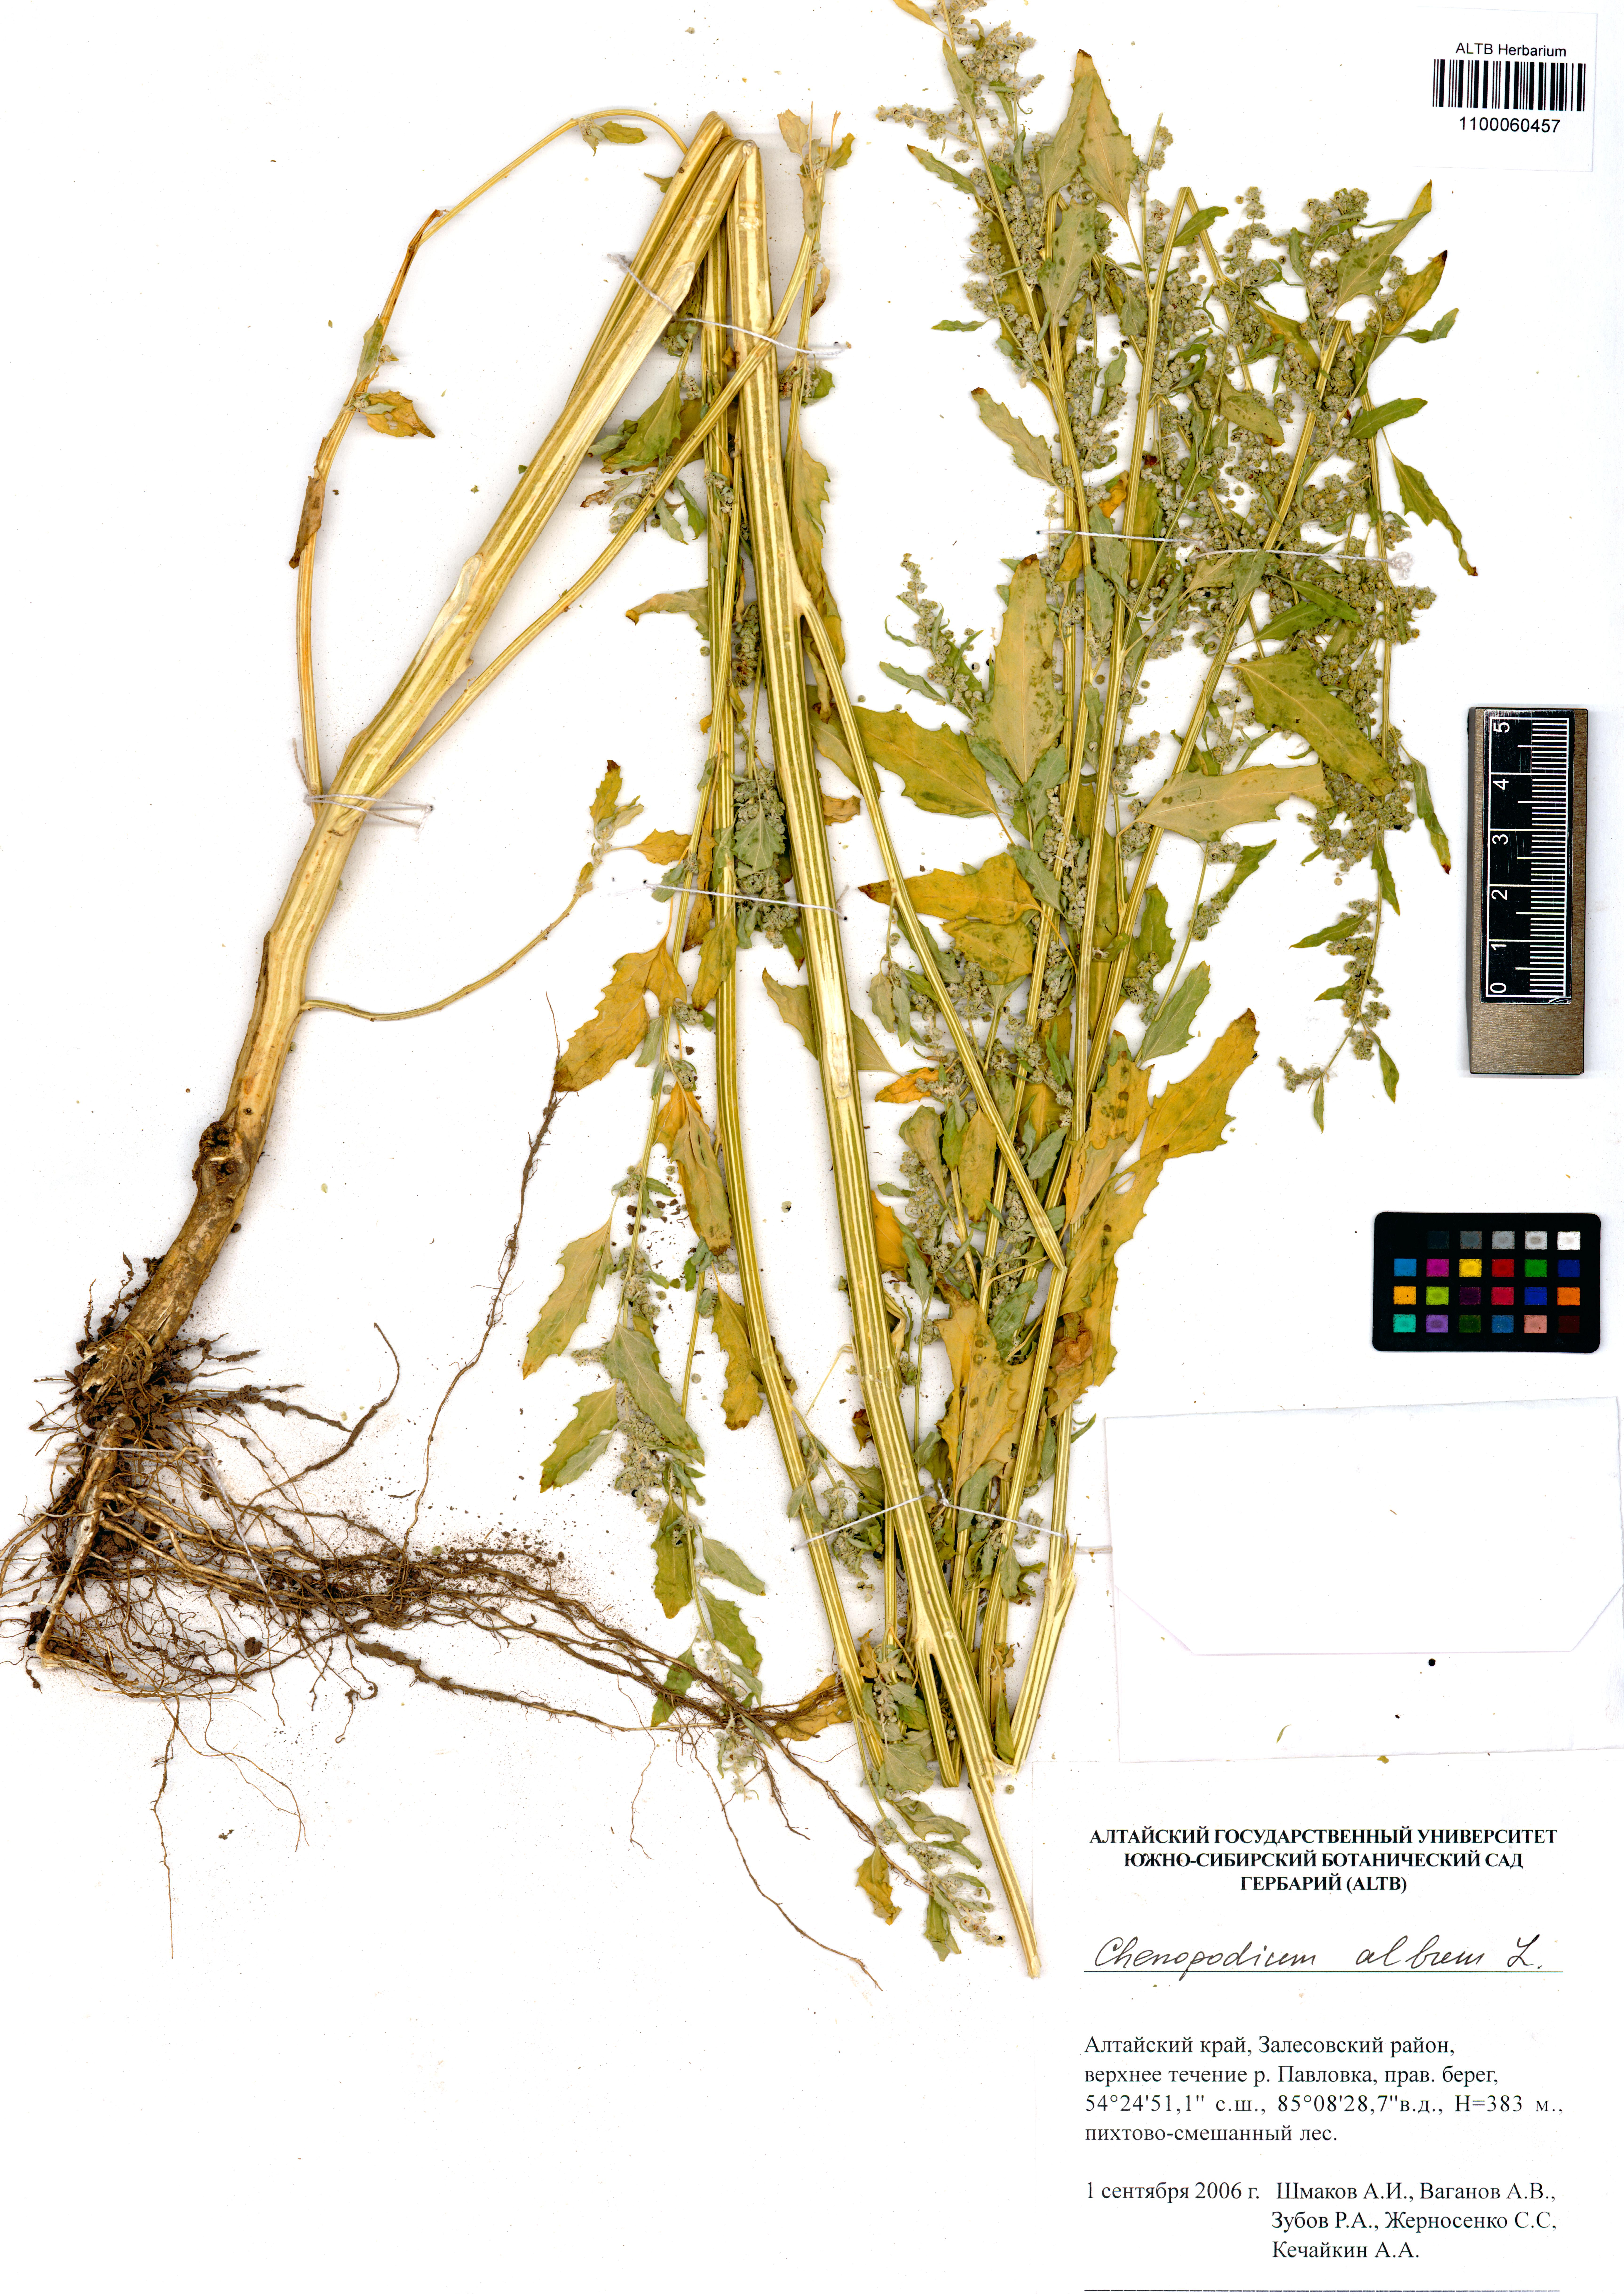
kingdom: Plantae
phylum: Tracheophyta
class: Magnoliopsida
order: Caryophyllales
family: Amaranthaceae
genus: Chenopodium
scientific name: Chenopodium album
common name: Fat-hen
